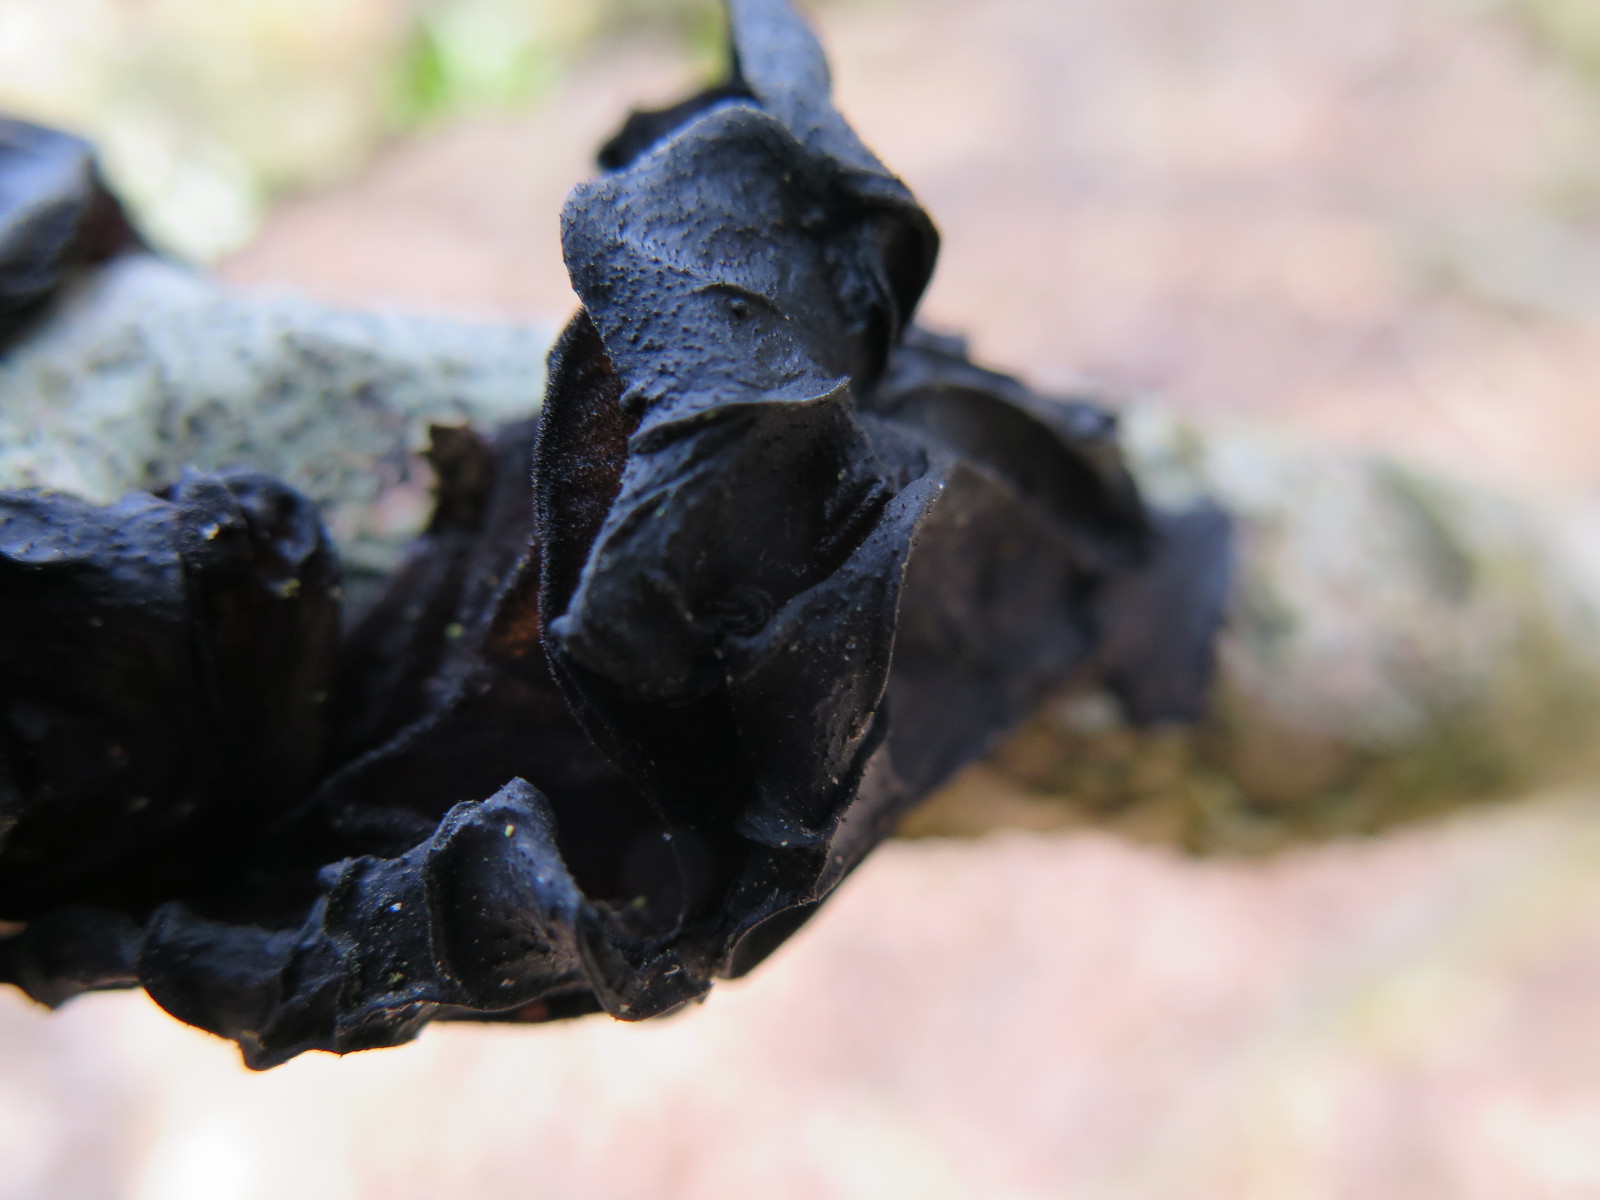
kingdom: Fungi
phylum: Basidiomycota
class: Agaricomycetes
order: Auriculariales
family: Auriculariaceae
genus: Exidia
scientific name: Exidia glandulosa
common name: ege-bævretop
